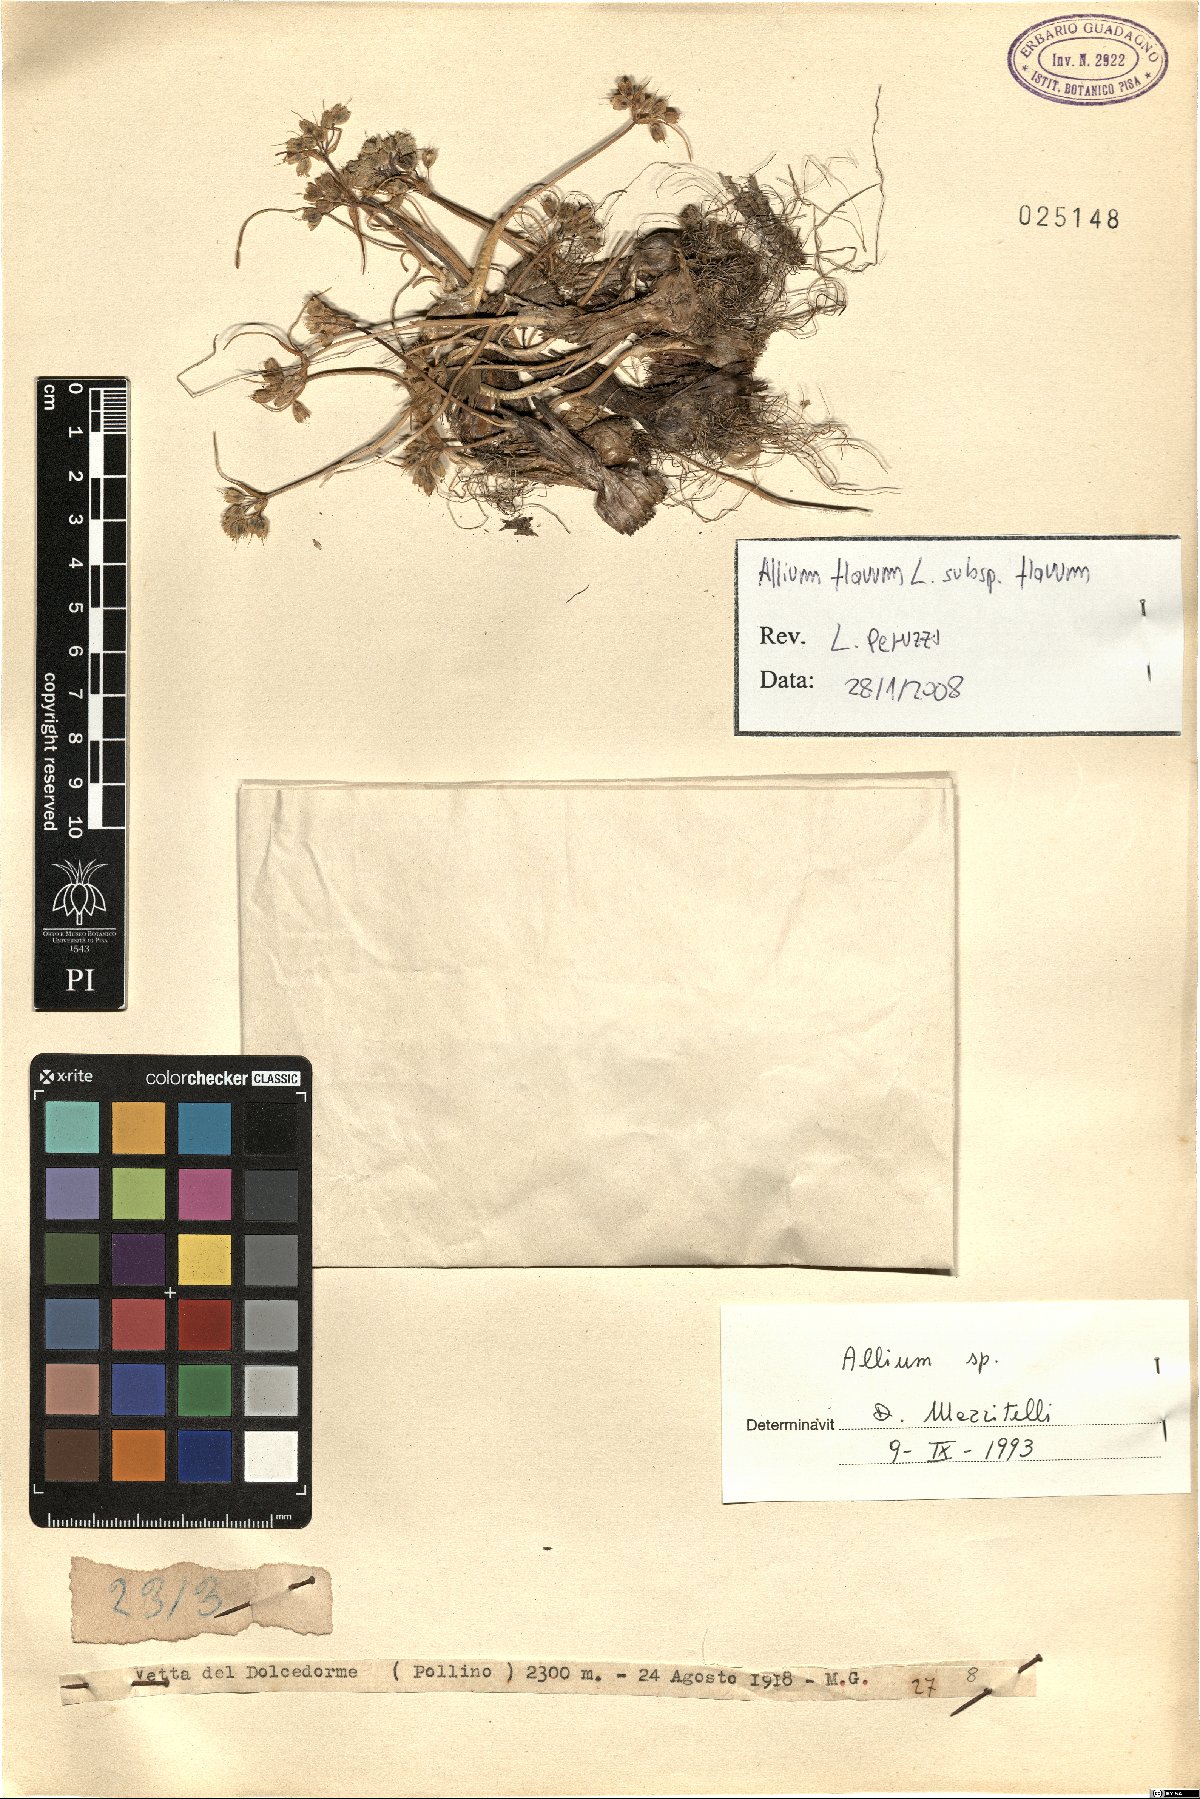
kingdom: Plantae
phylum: Tracheophyta
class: Liliopsida
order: Asparagales
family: Amaryllidaceae
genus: Allium
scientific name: Allium flavum
